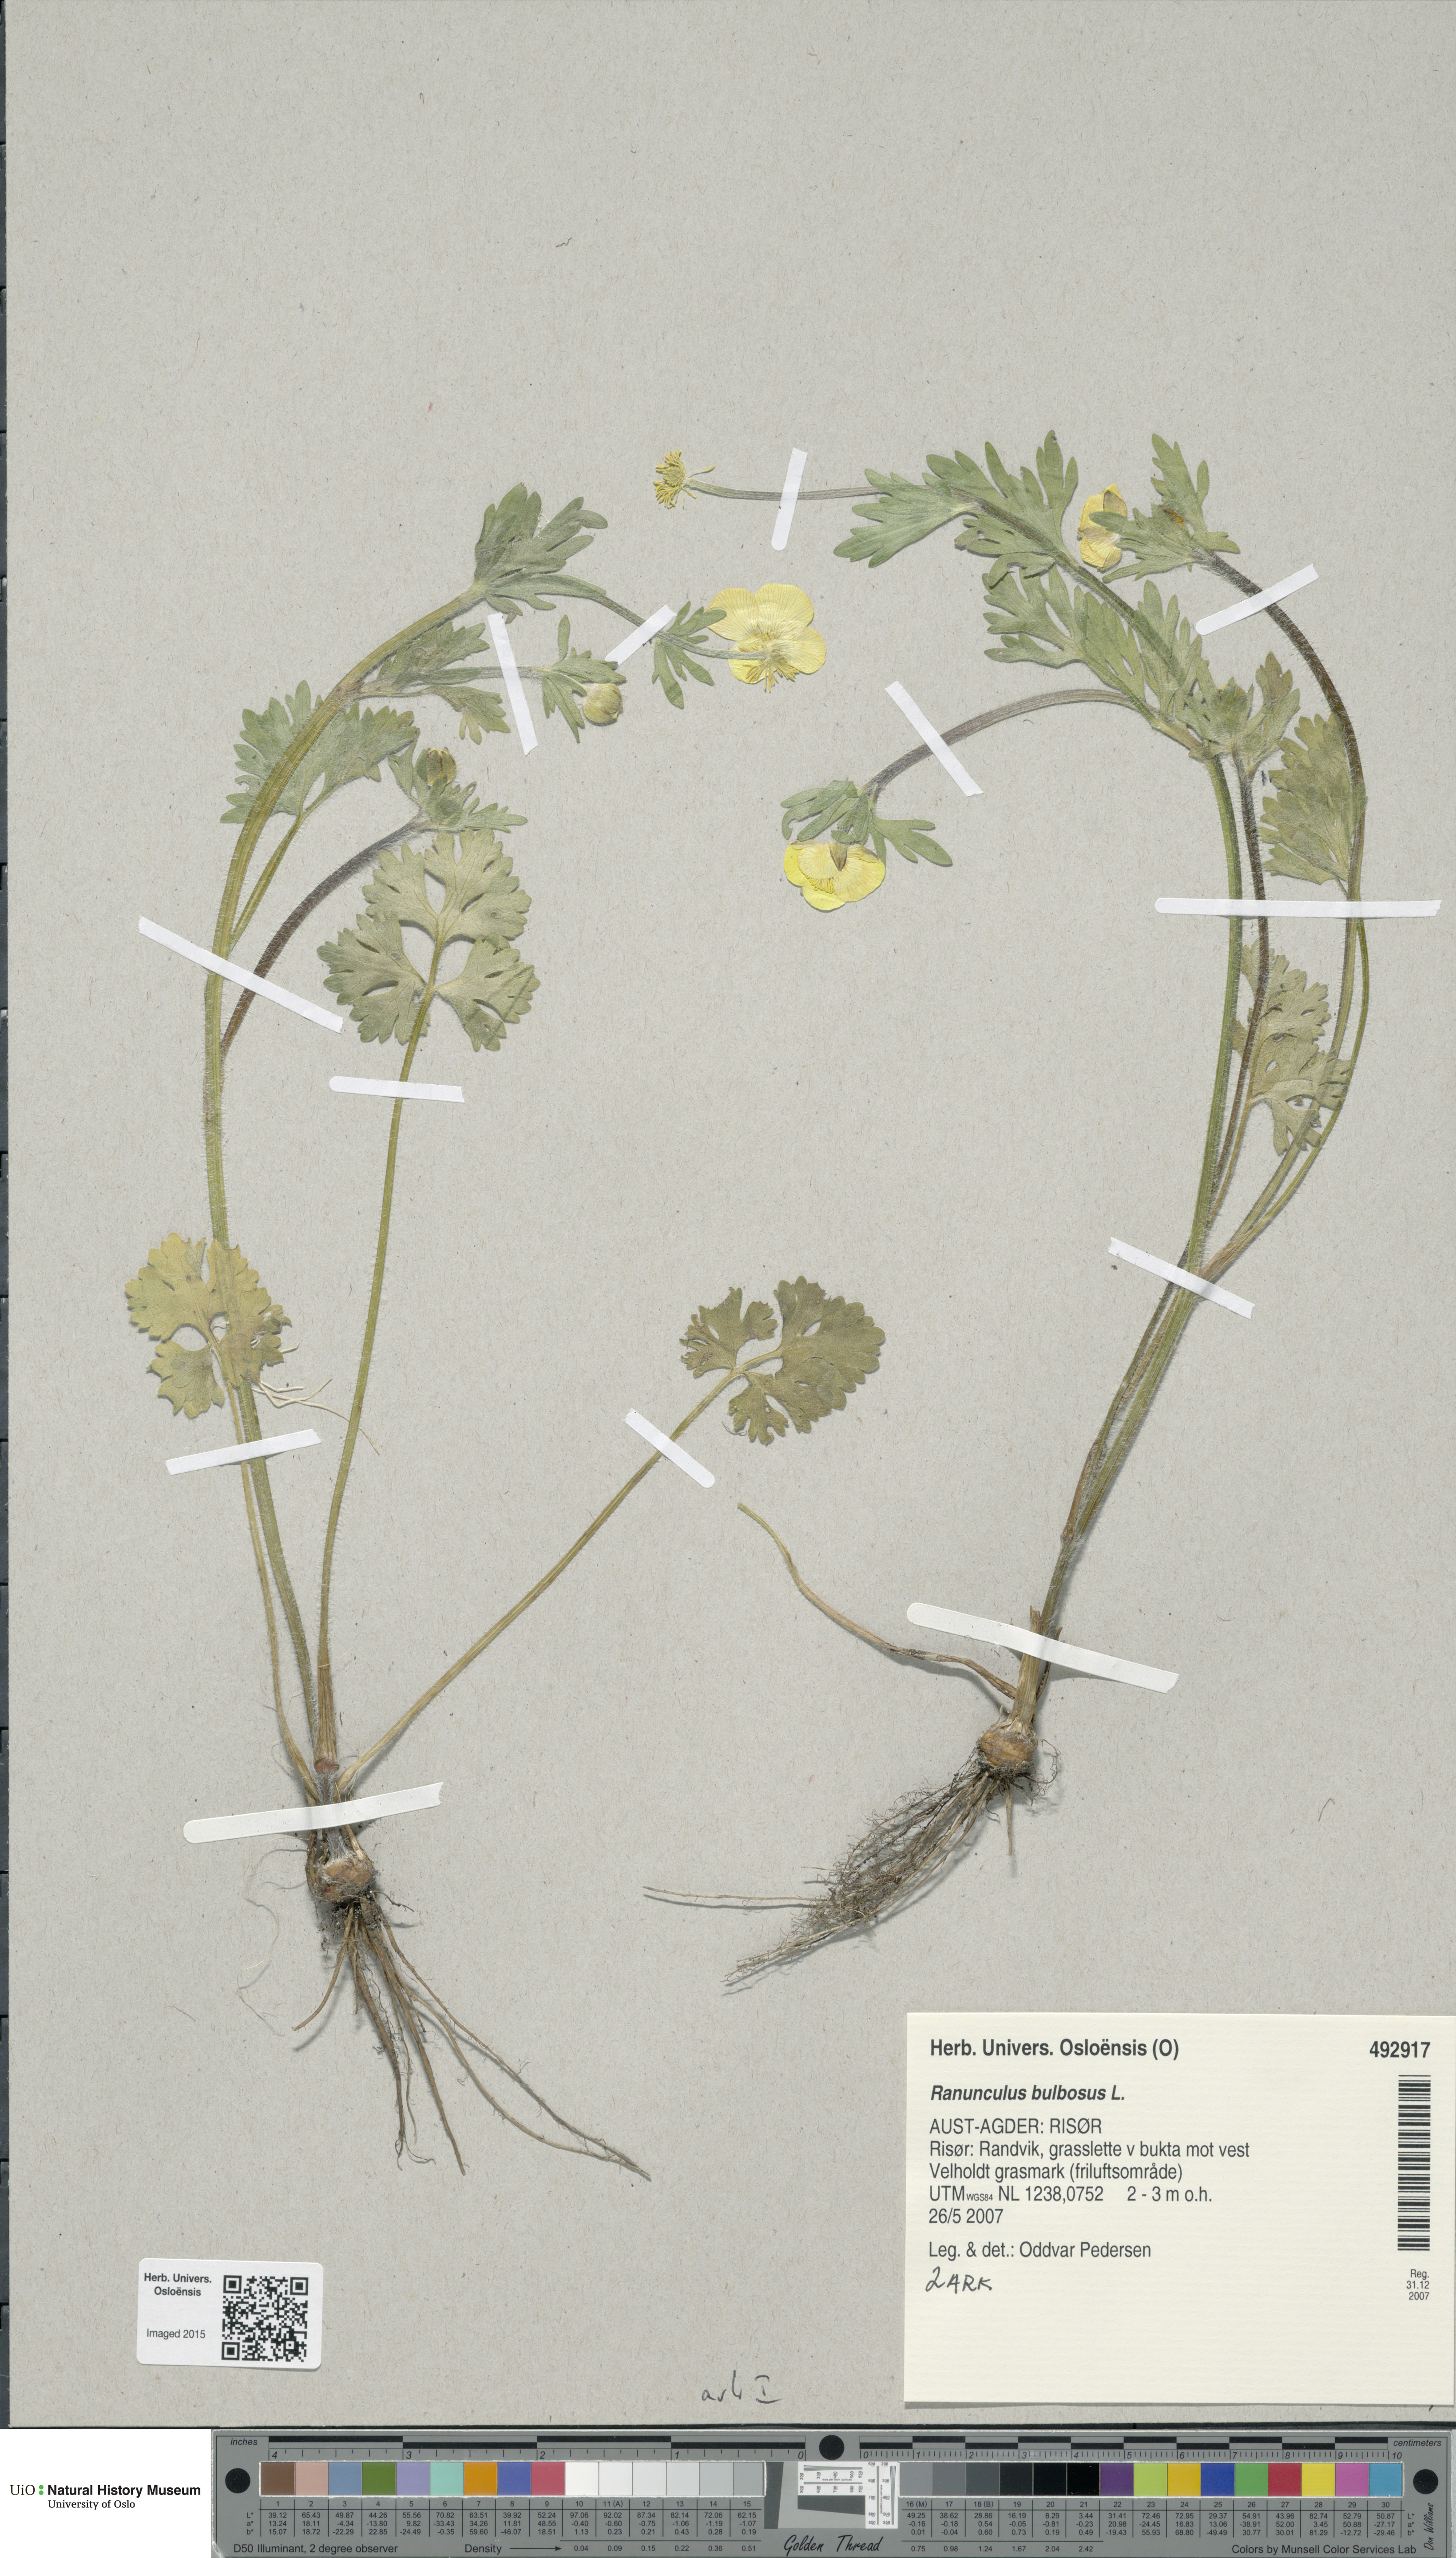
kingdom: Plantae
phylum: Tracheophyta
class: Magnoliopsida
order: Ranunculales
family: Ranunculaceae
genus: Ranunculus
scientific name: Ranunculus bulbosus
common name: Bulbous buttercup
